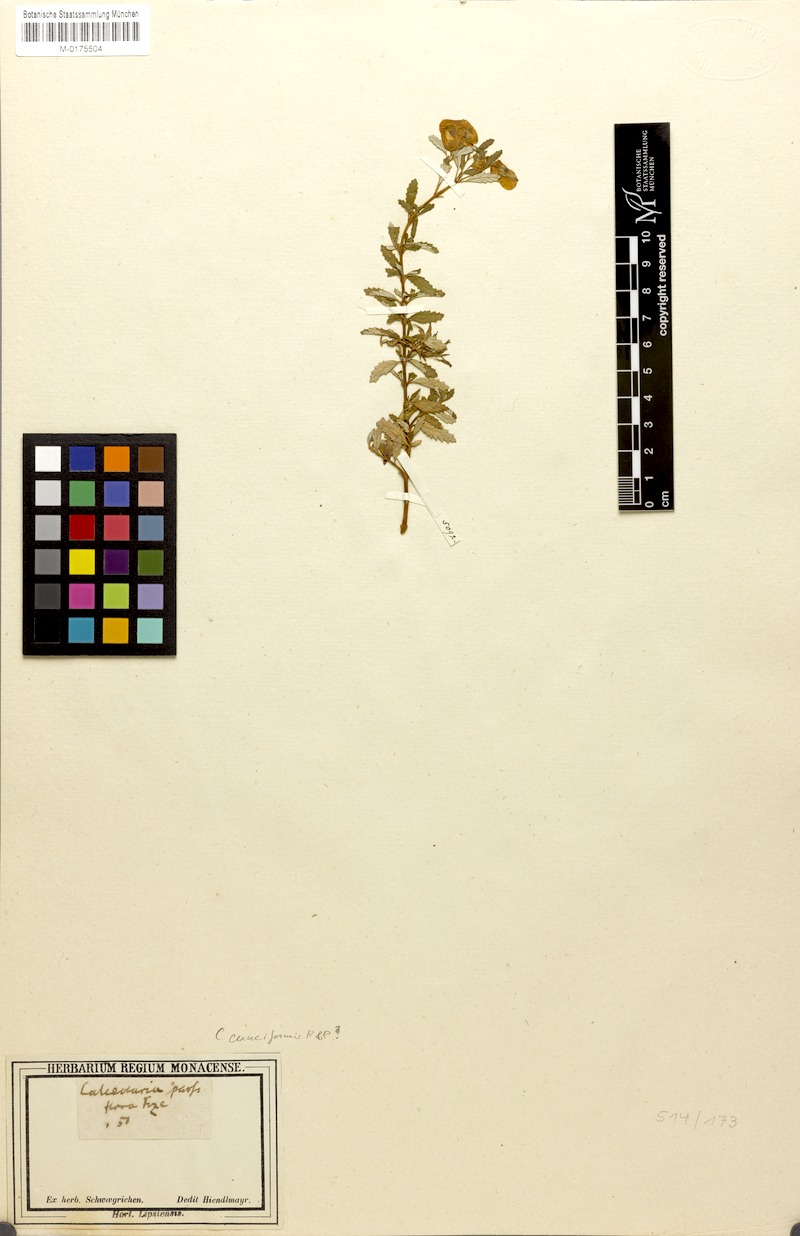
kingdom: Plantae
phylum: Tracheophyta
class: Magnoliopsida
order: Lamiales
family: Calceolariaceae
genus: Calceolaria
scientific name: Calceolaria sparsiflora
